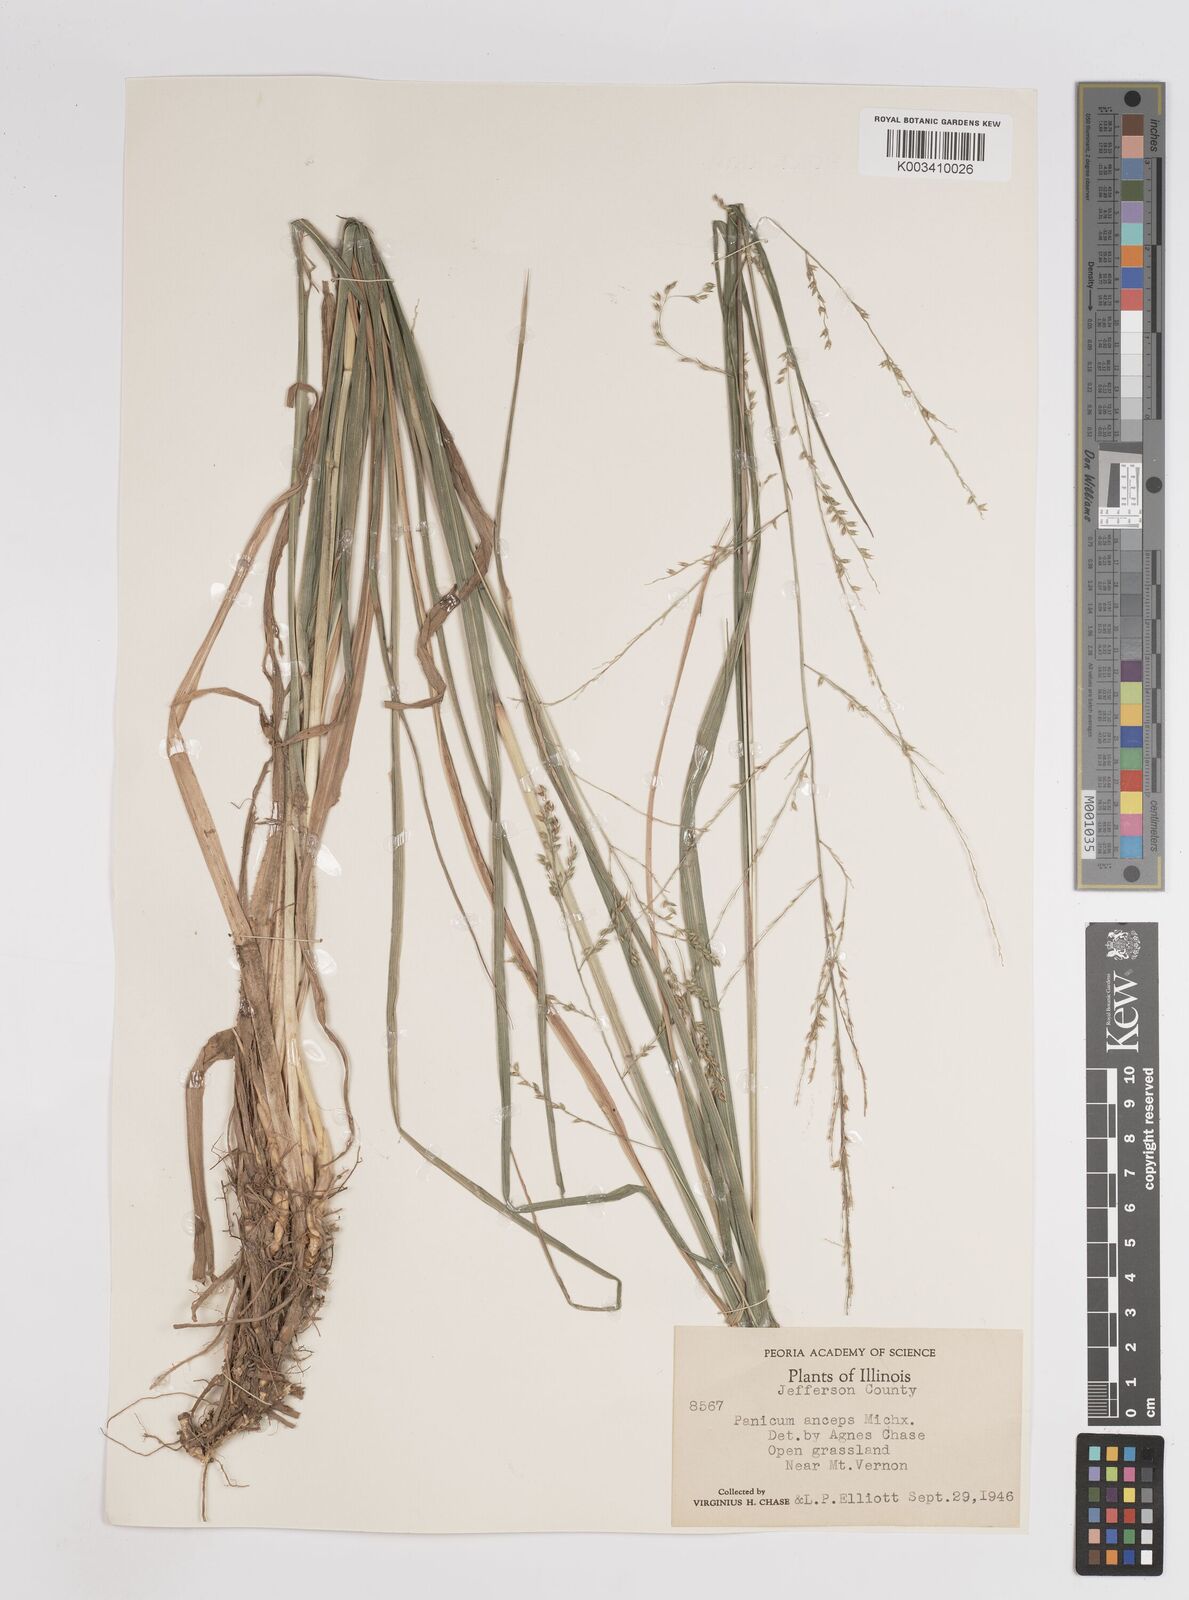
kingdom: Plantae
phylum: Tracheophyta
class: Liliopsida
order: Poales
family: Poaceae
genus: Coleataenia
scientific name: Coleataenia anceps
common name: Beaked panic grass
